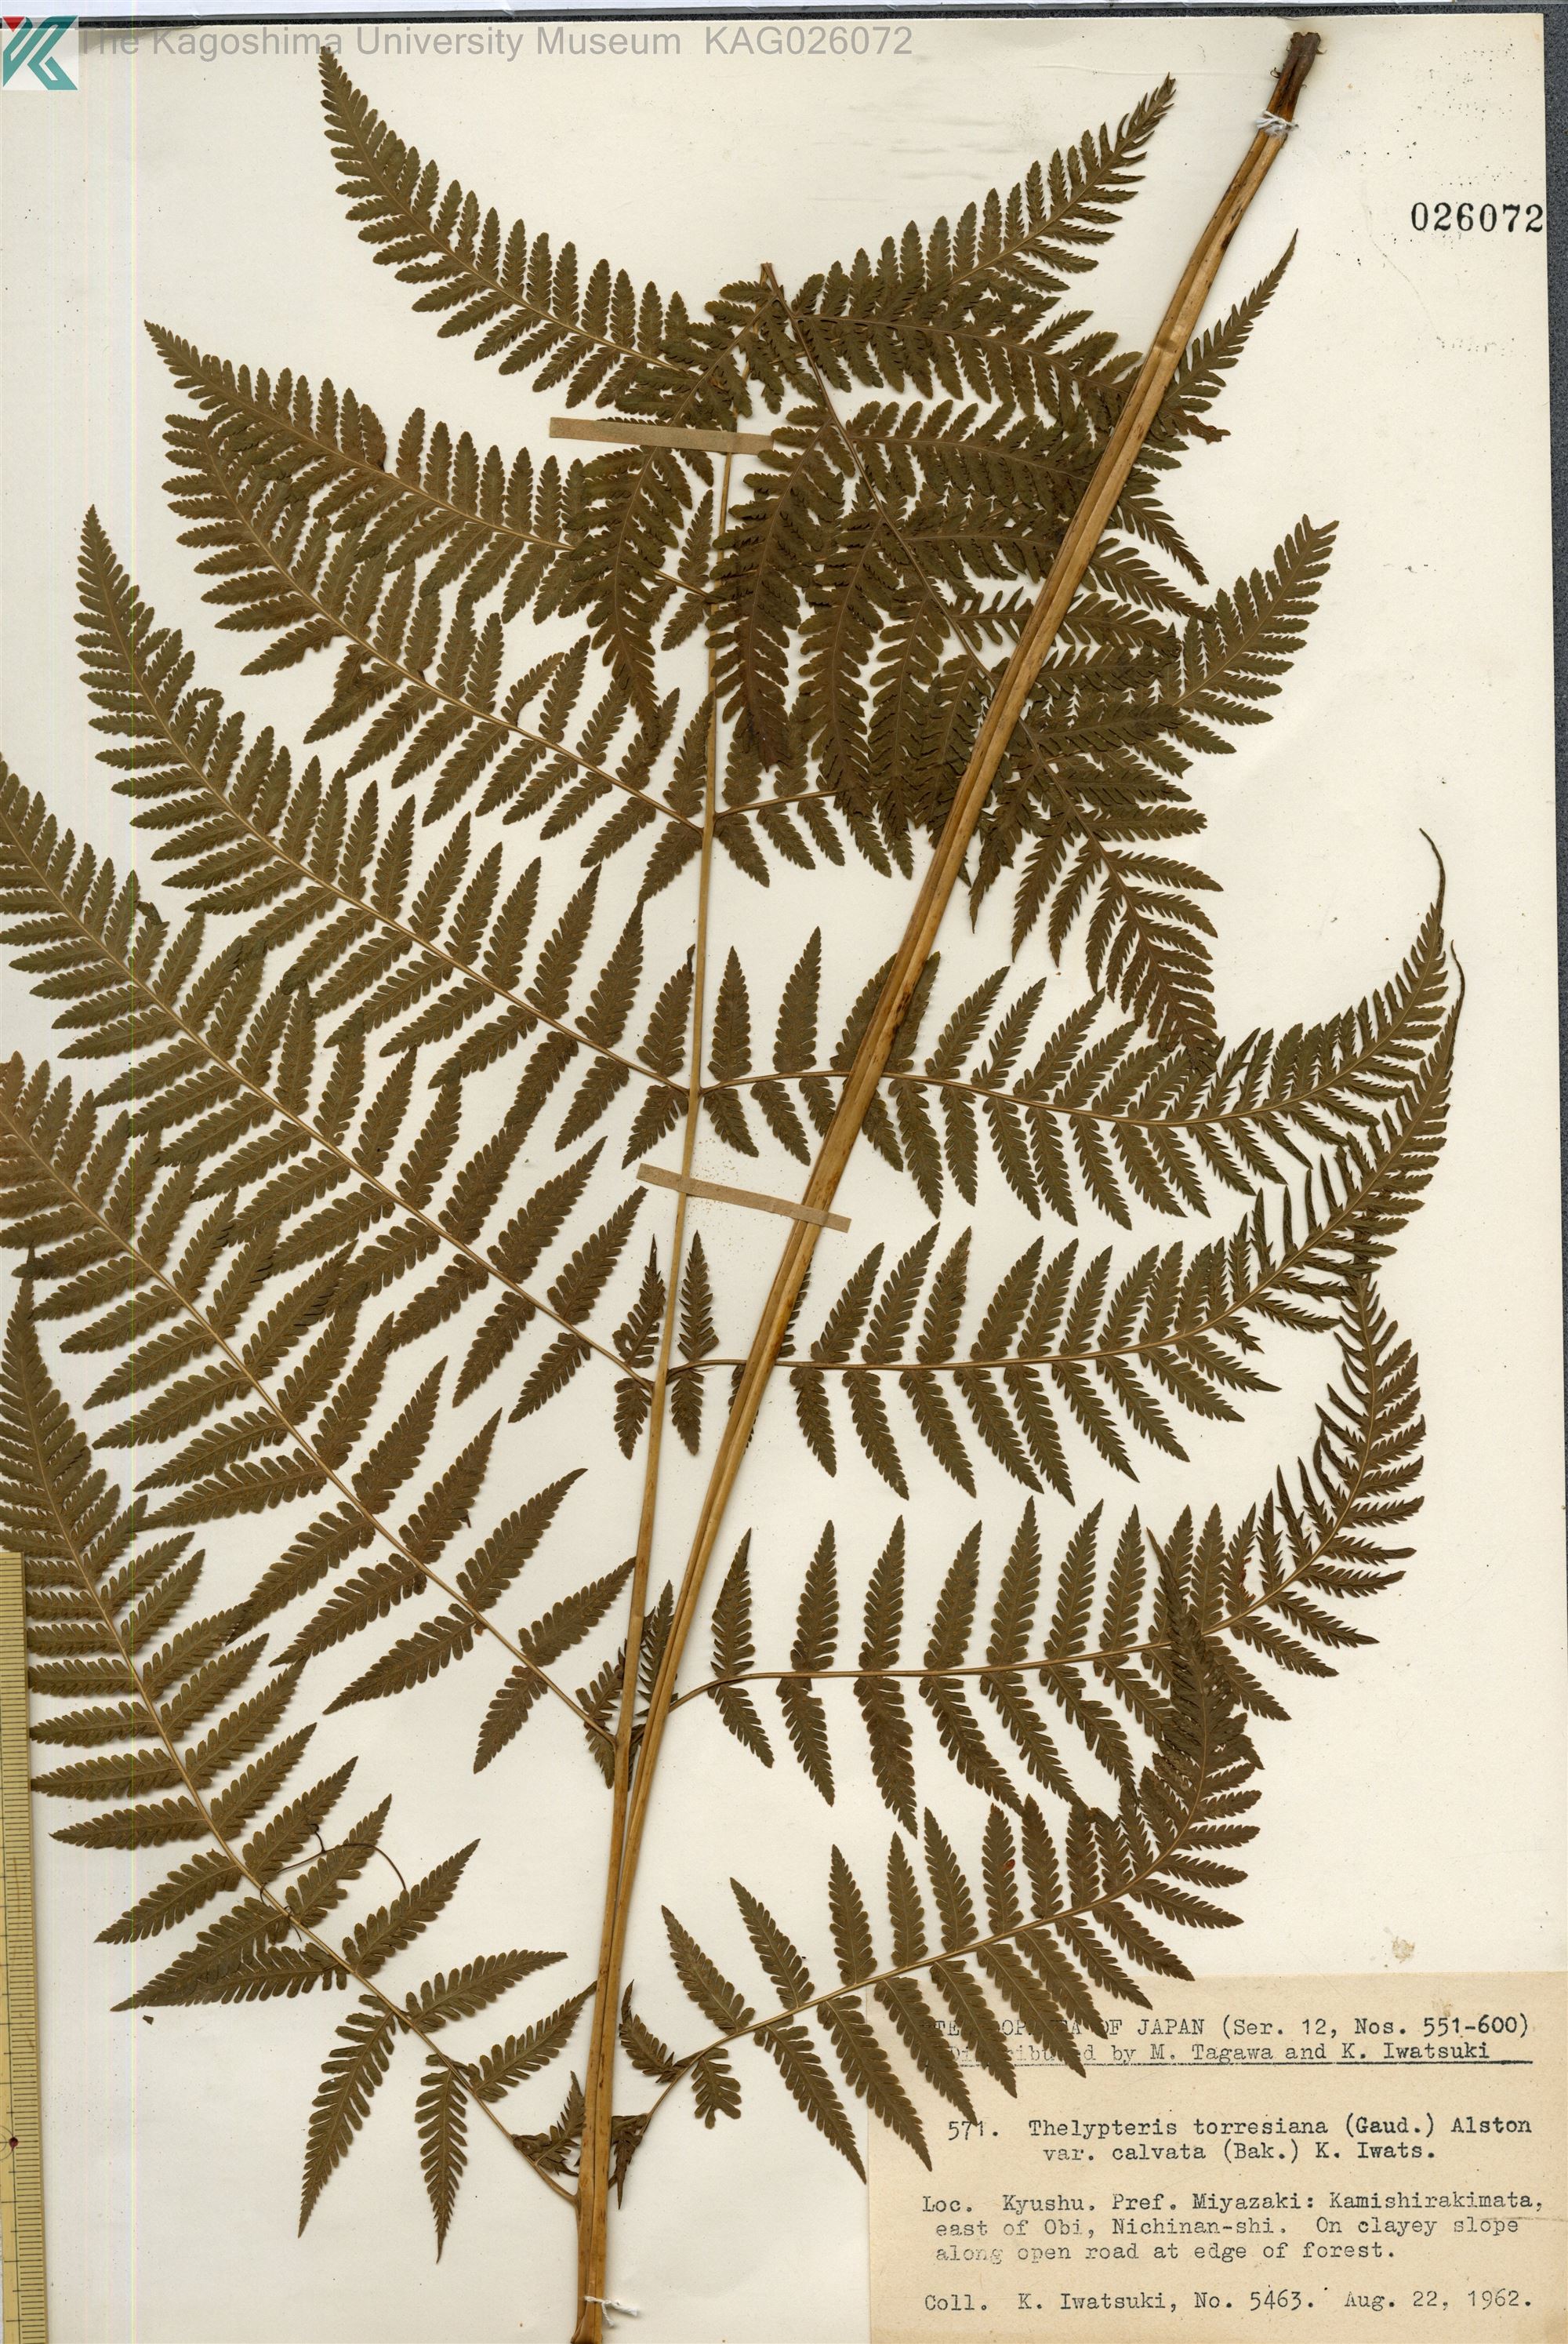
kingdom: Plantae
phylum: Tracheophyta
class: Polypodiopsida
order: Polypodiales
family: Thelypteridaceae
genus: Macrothelypteris
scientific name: Macrothelypteris oligophlebia
